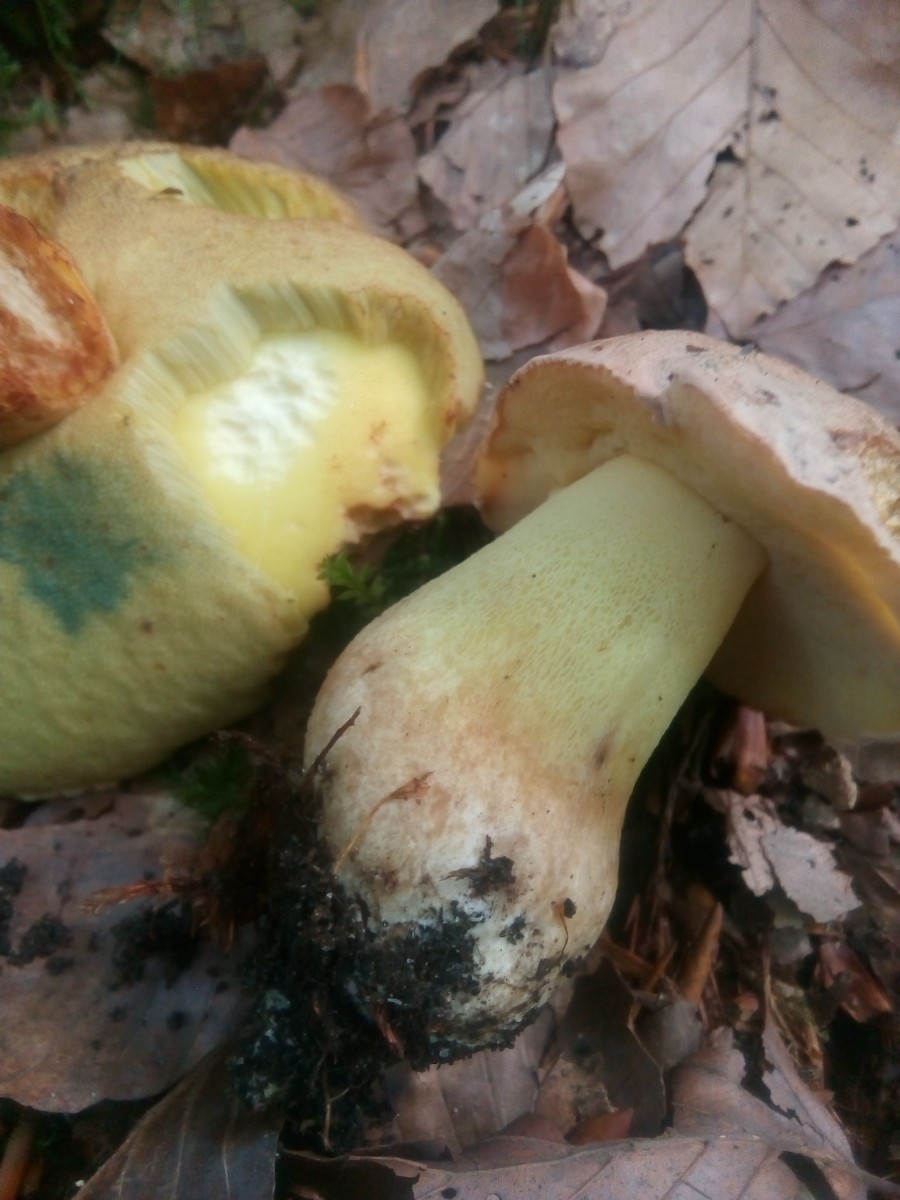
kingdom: Fungi
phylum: Basidiomycota
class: Agaricomycetes
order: Boletales
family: Boletaceae
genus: Butyriboletus
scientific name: Butyriboletus appendiculatus
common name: tenstokket rørhat
